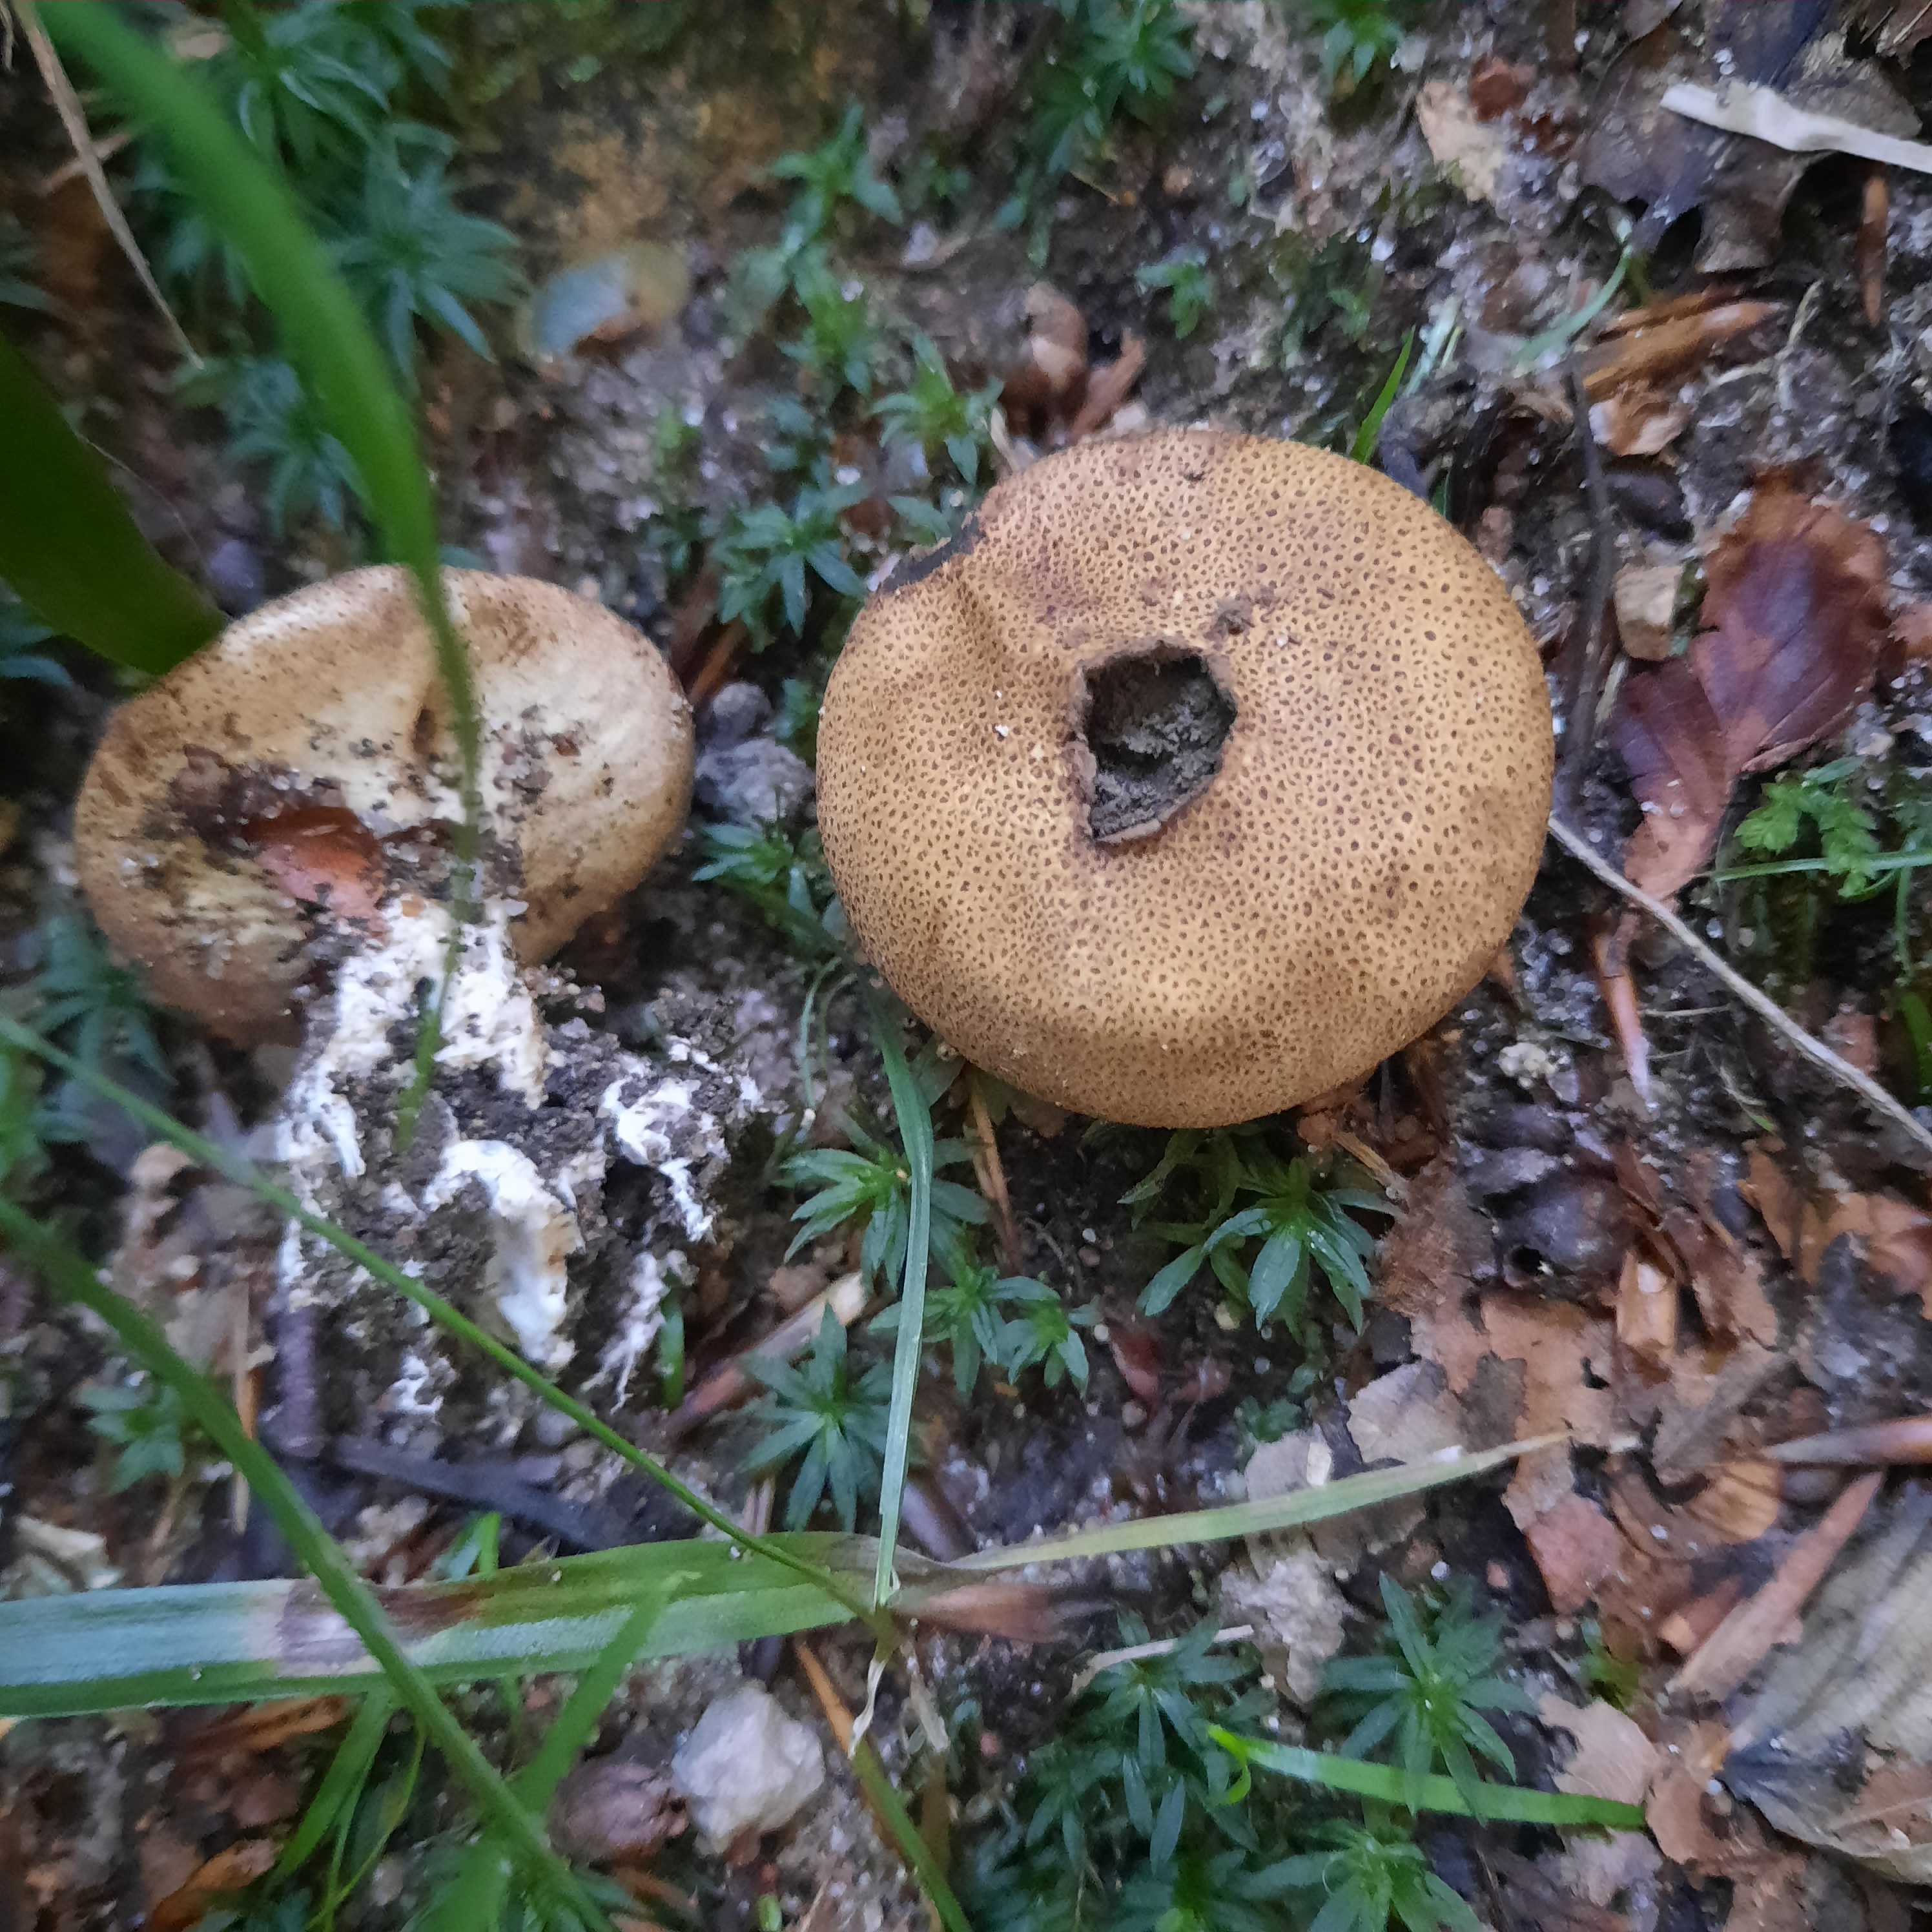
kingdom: Fungi
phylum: Basidiomycota
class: Agaricomycetes
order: Boletales
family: Sclerodermataceae
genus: Scleroderma
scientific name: Scleroderma
